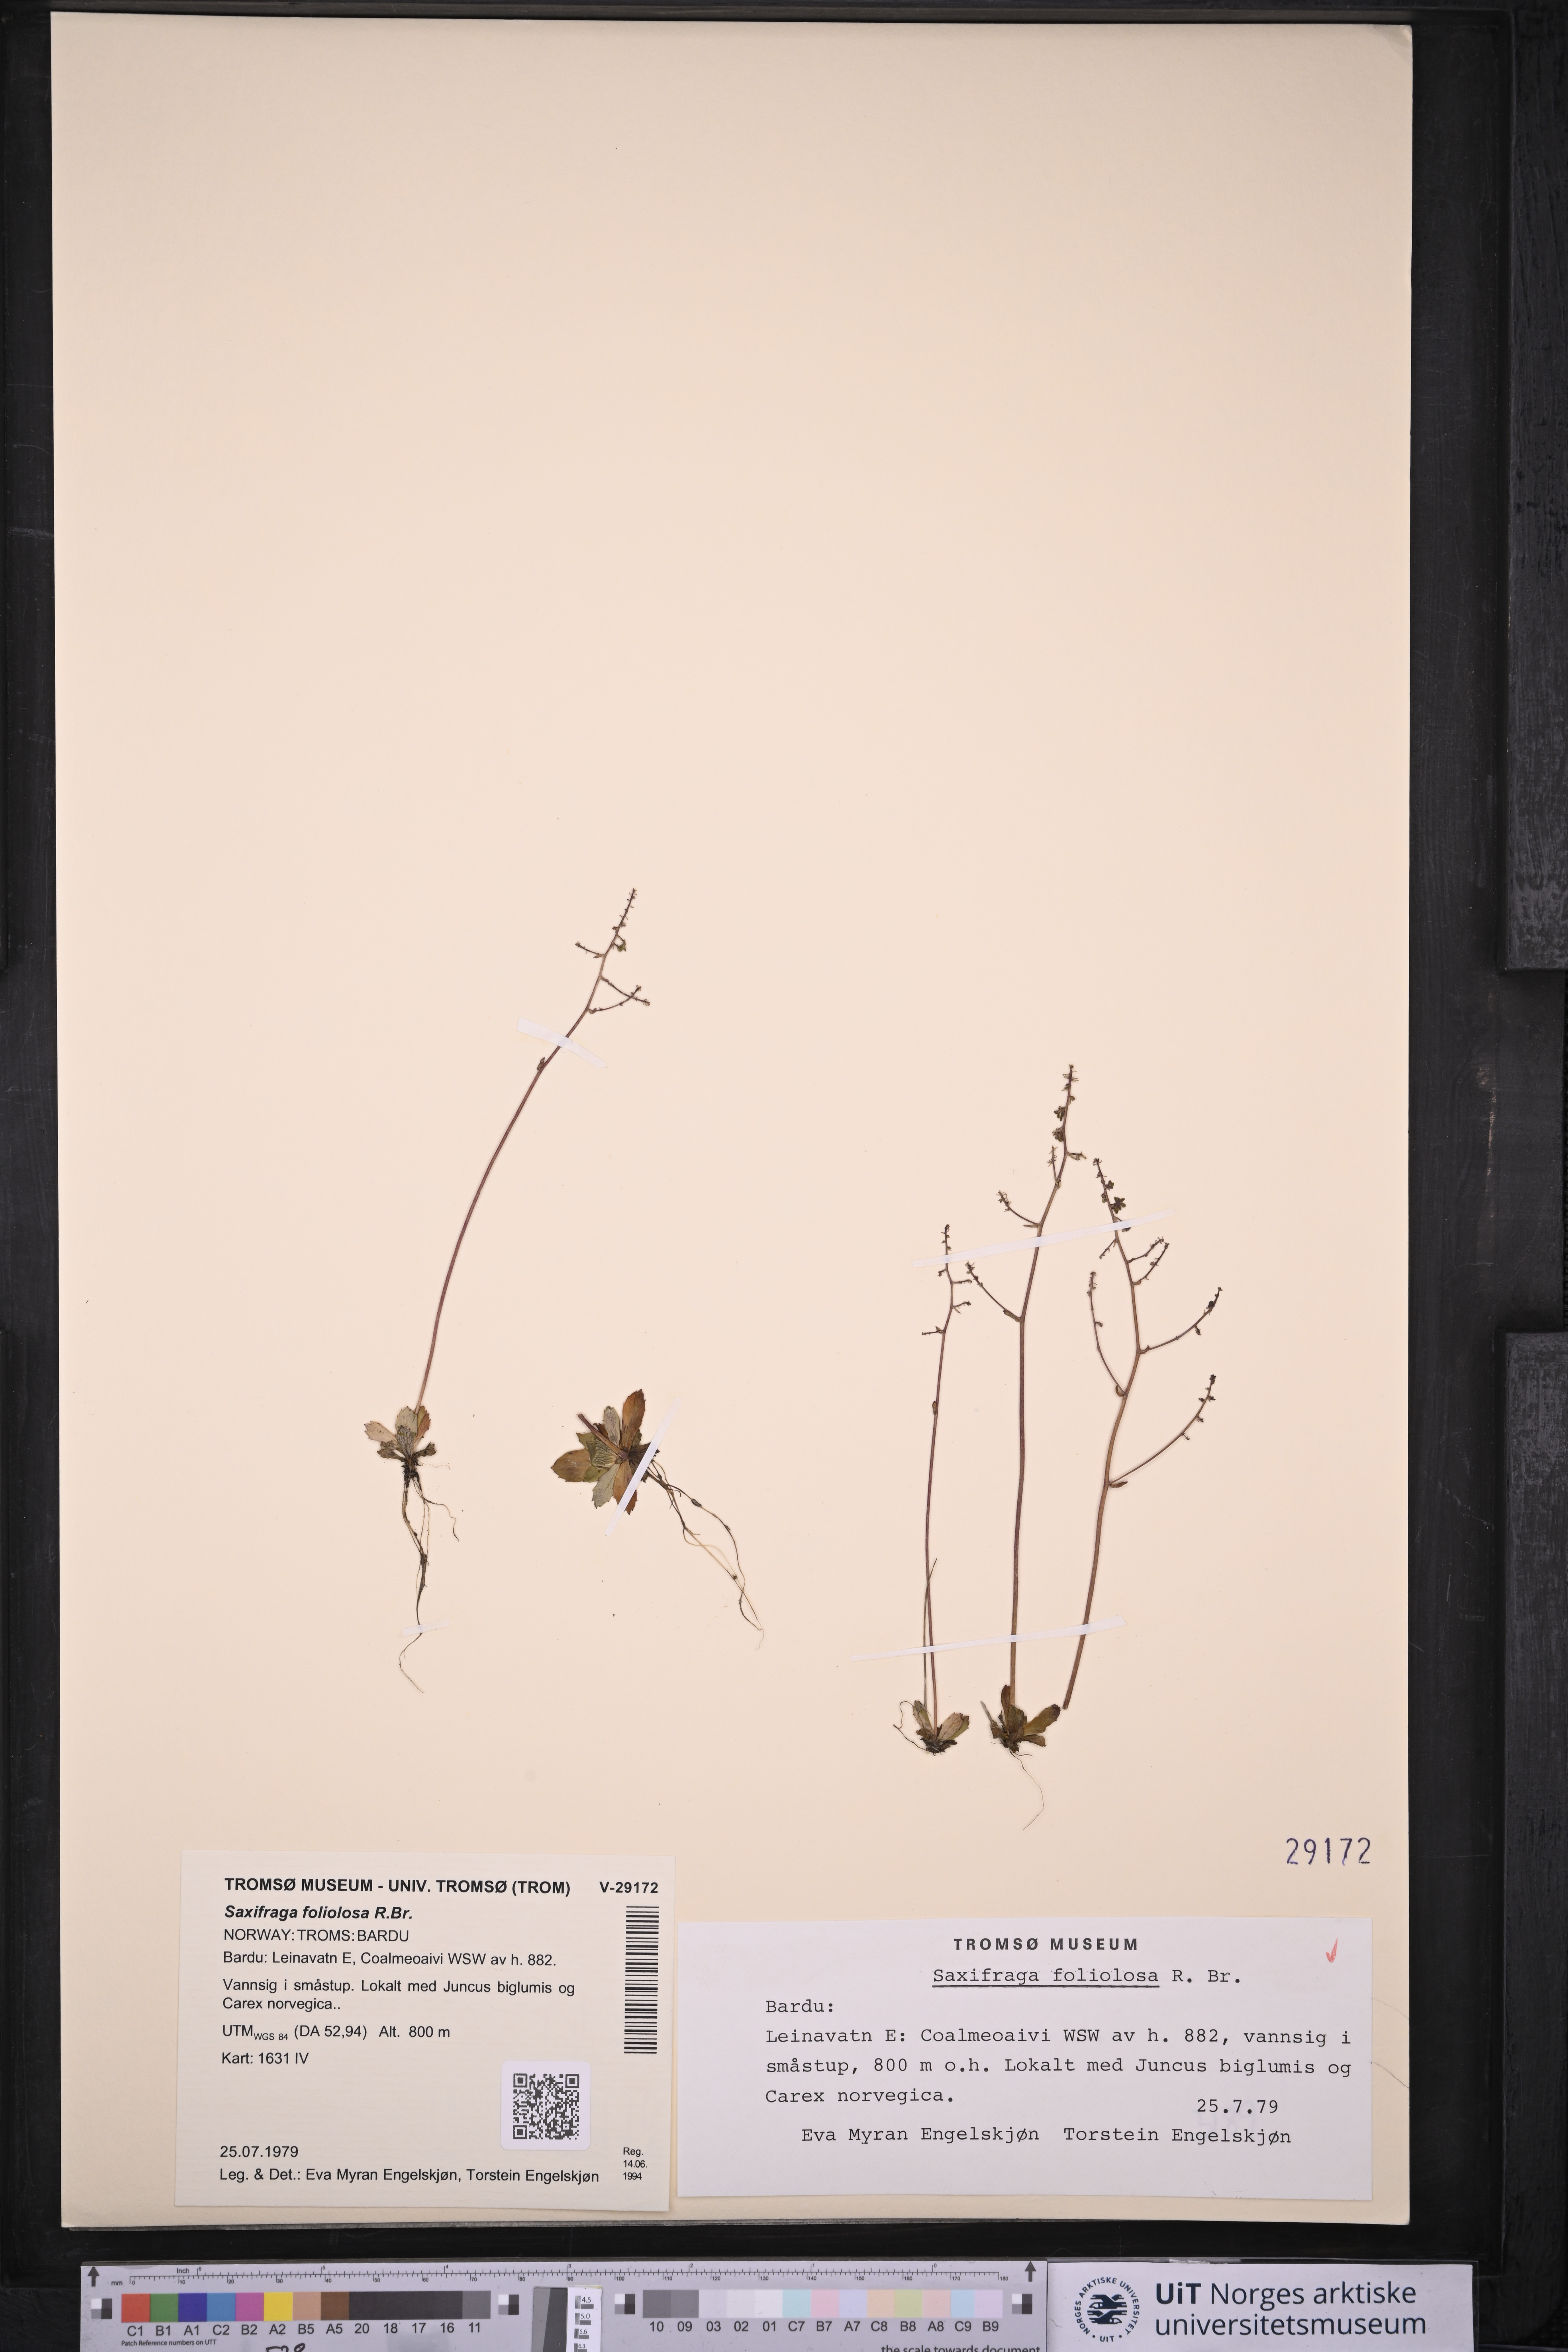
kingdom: Plantae
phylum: Tracheophyta
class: Magnoliopsida
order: Saxifragales
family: Saxifragaceae
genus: Micranthes
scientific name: Micranthes foliolosa
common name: Leafystem saxifrage
